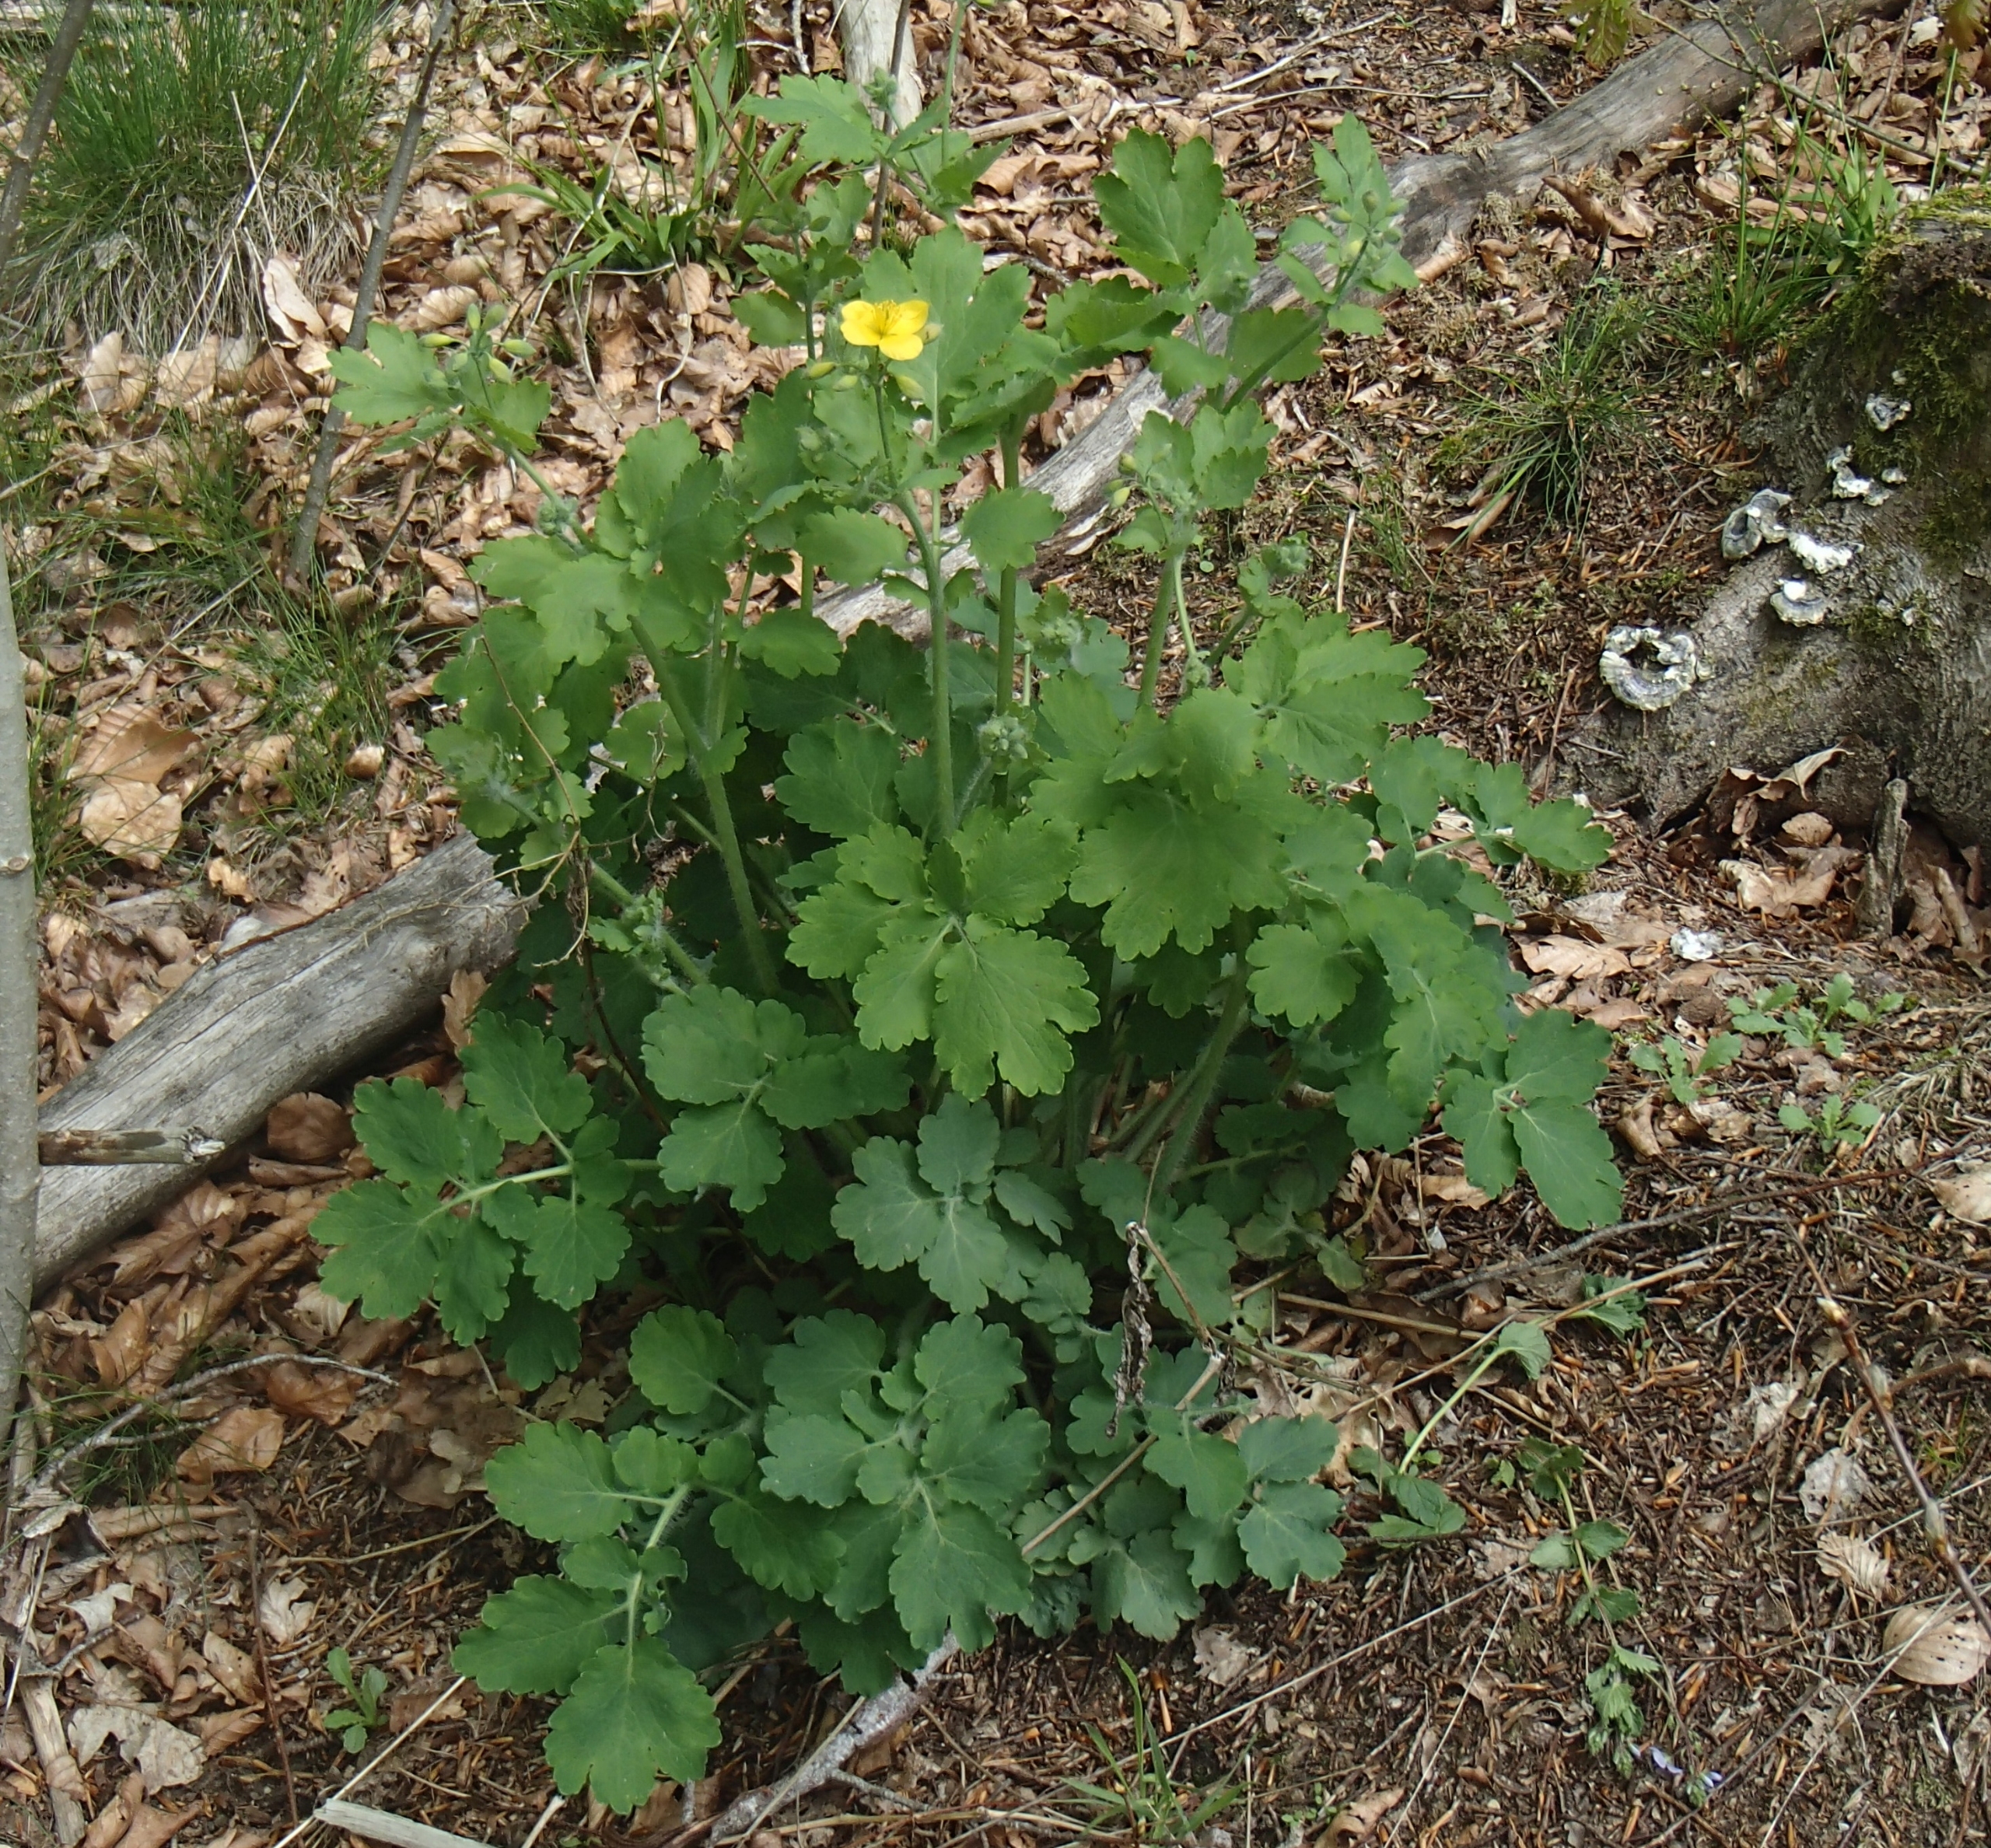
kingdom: Plantae
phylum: Tracheophyta
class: Magnoliopsida
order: Ranunculales
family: Papaveraceae
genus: Chelidonium
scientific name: Chelidonium majus
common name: Svaleurt
